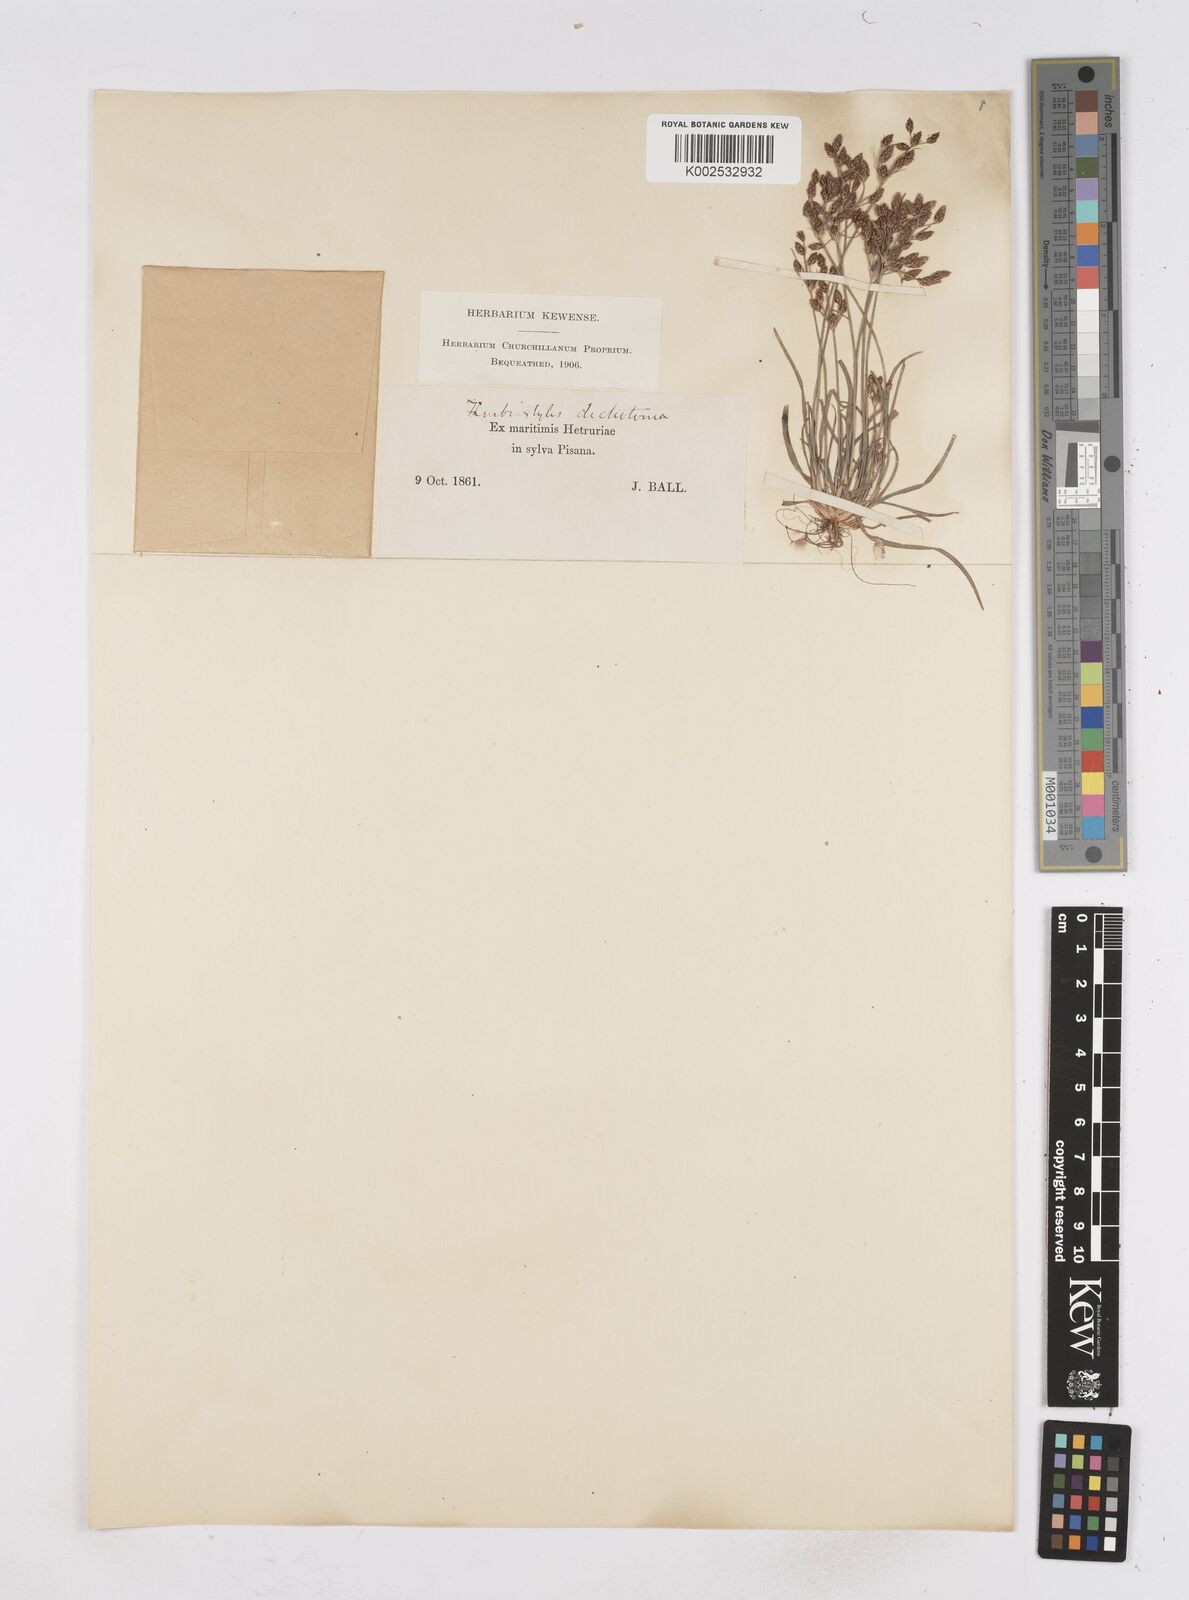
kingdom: Plantae
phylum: Tracheophyta
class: Liliopsida
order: Poales
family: Cyperaceae
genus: Fimbristylis
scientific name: Fimbristylis dichotoma
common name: Forked fimbry
